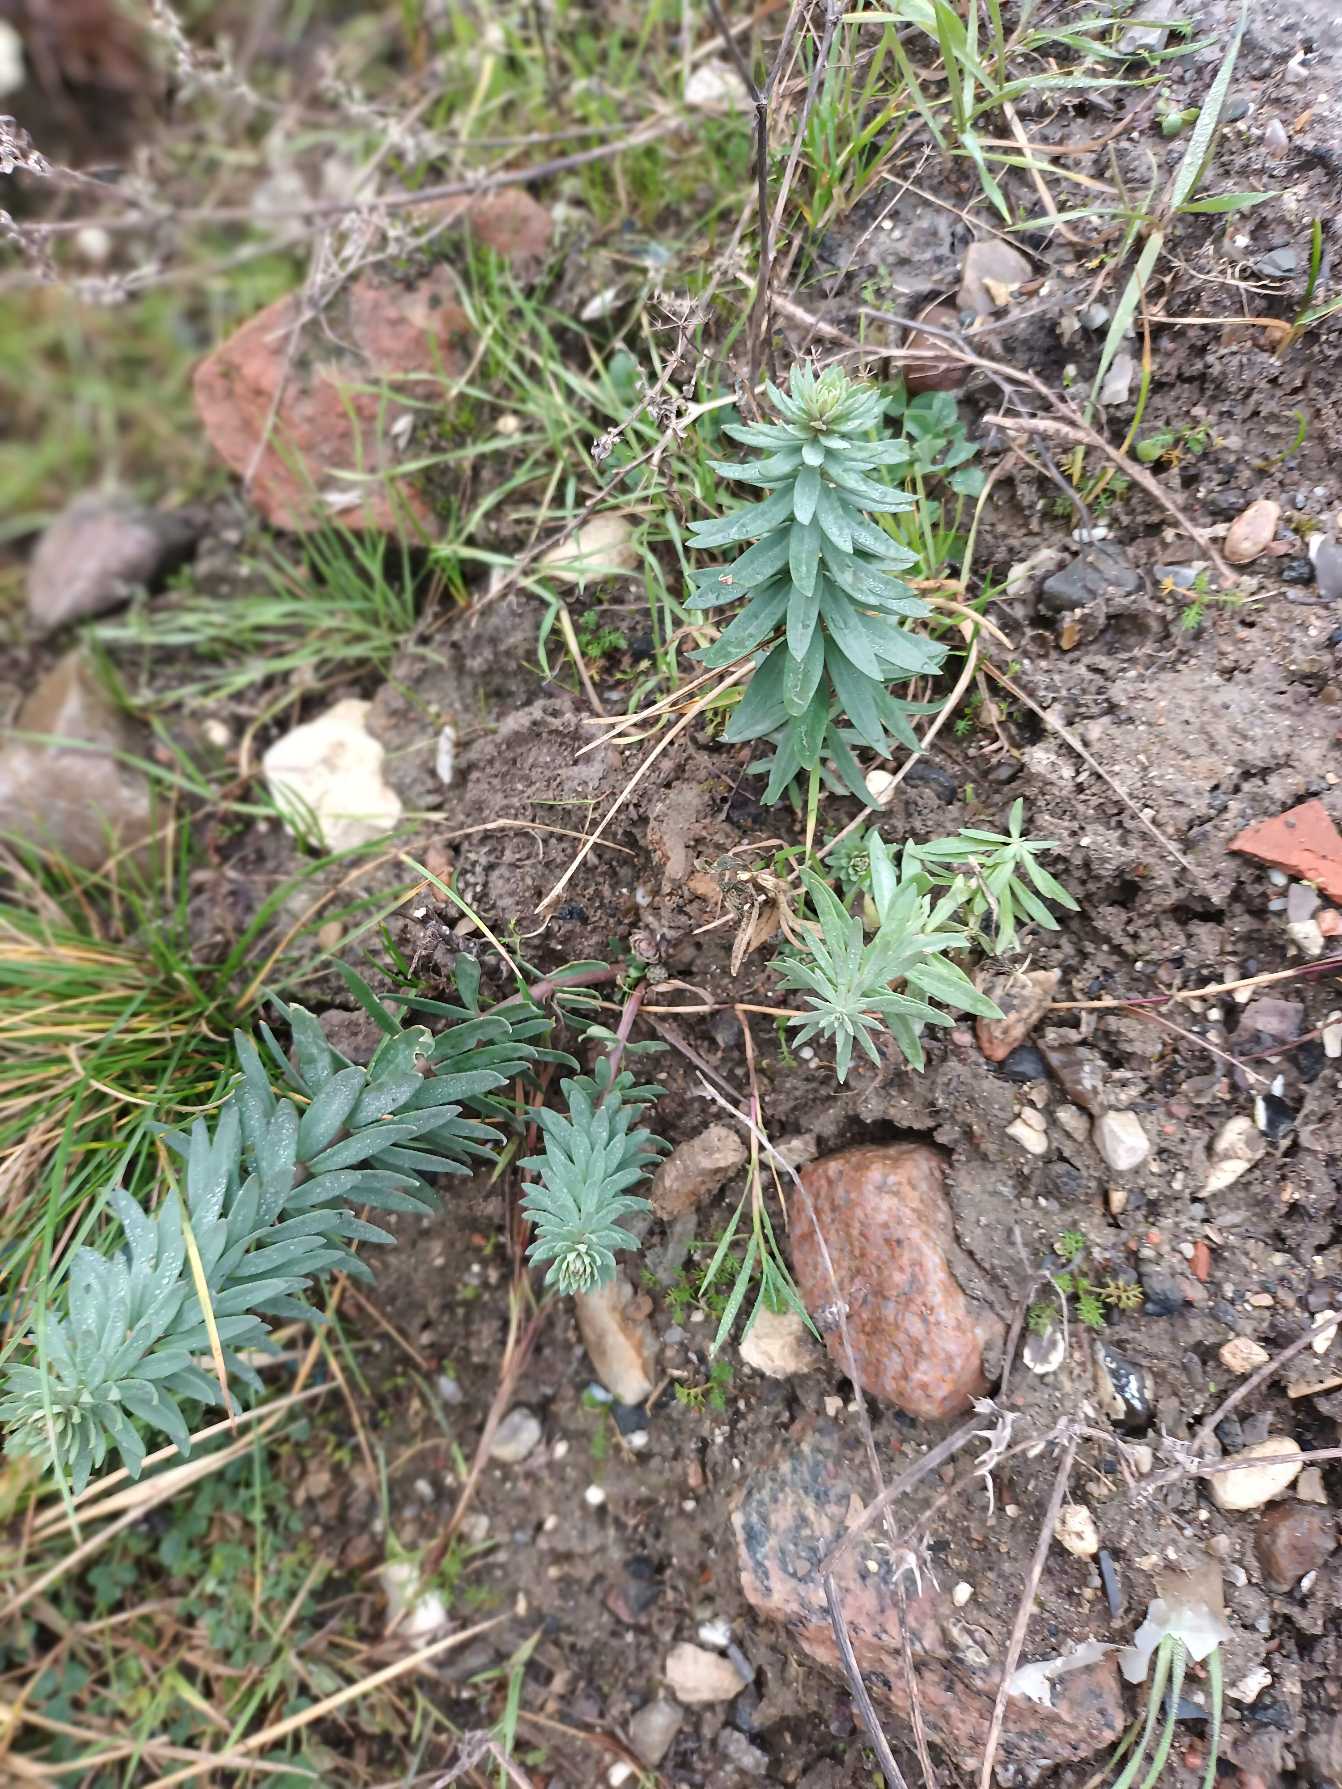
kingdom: Plantae
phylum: Tracheophyta
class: Magnoliopsida
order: Lamiales
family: Plantaginaceae
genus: Linaria
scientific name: Linaria purpurea
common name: Purpur-torskemund
